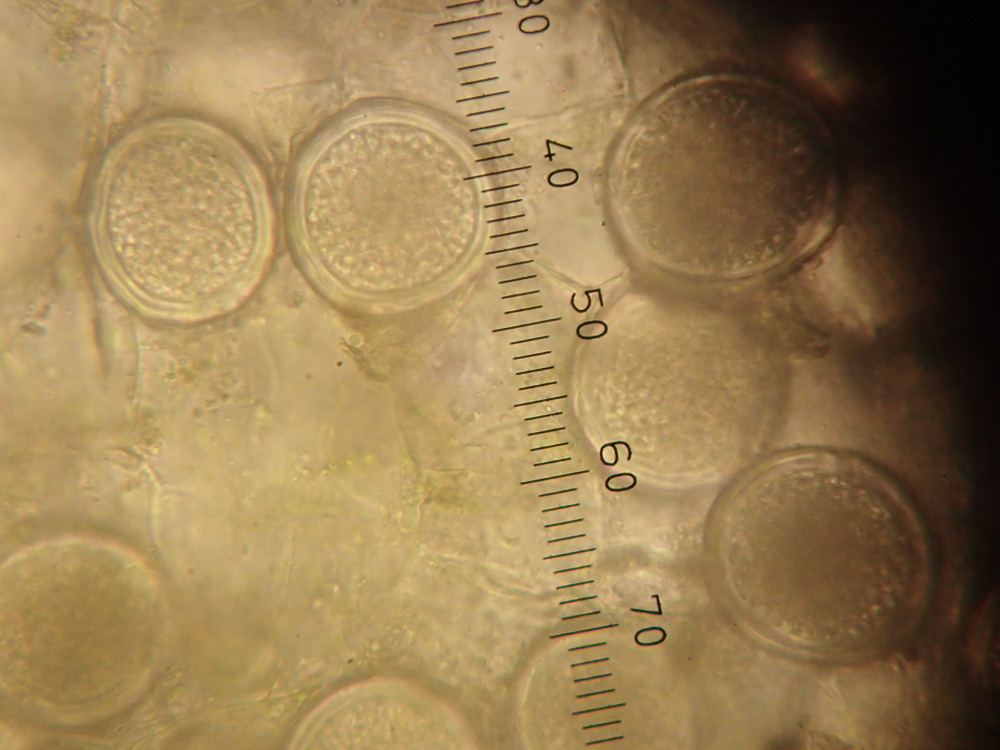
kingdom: Fungi
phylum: Ascomycota
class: Taphrinomycetes
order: Taphrinales
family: Taphrinaceae
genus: Protomyces
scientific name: Protomyces macrosporus
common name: skvalderkål-vablesæk
